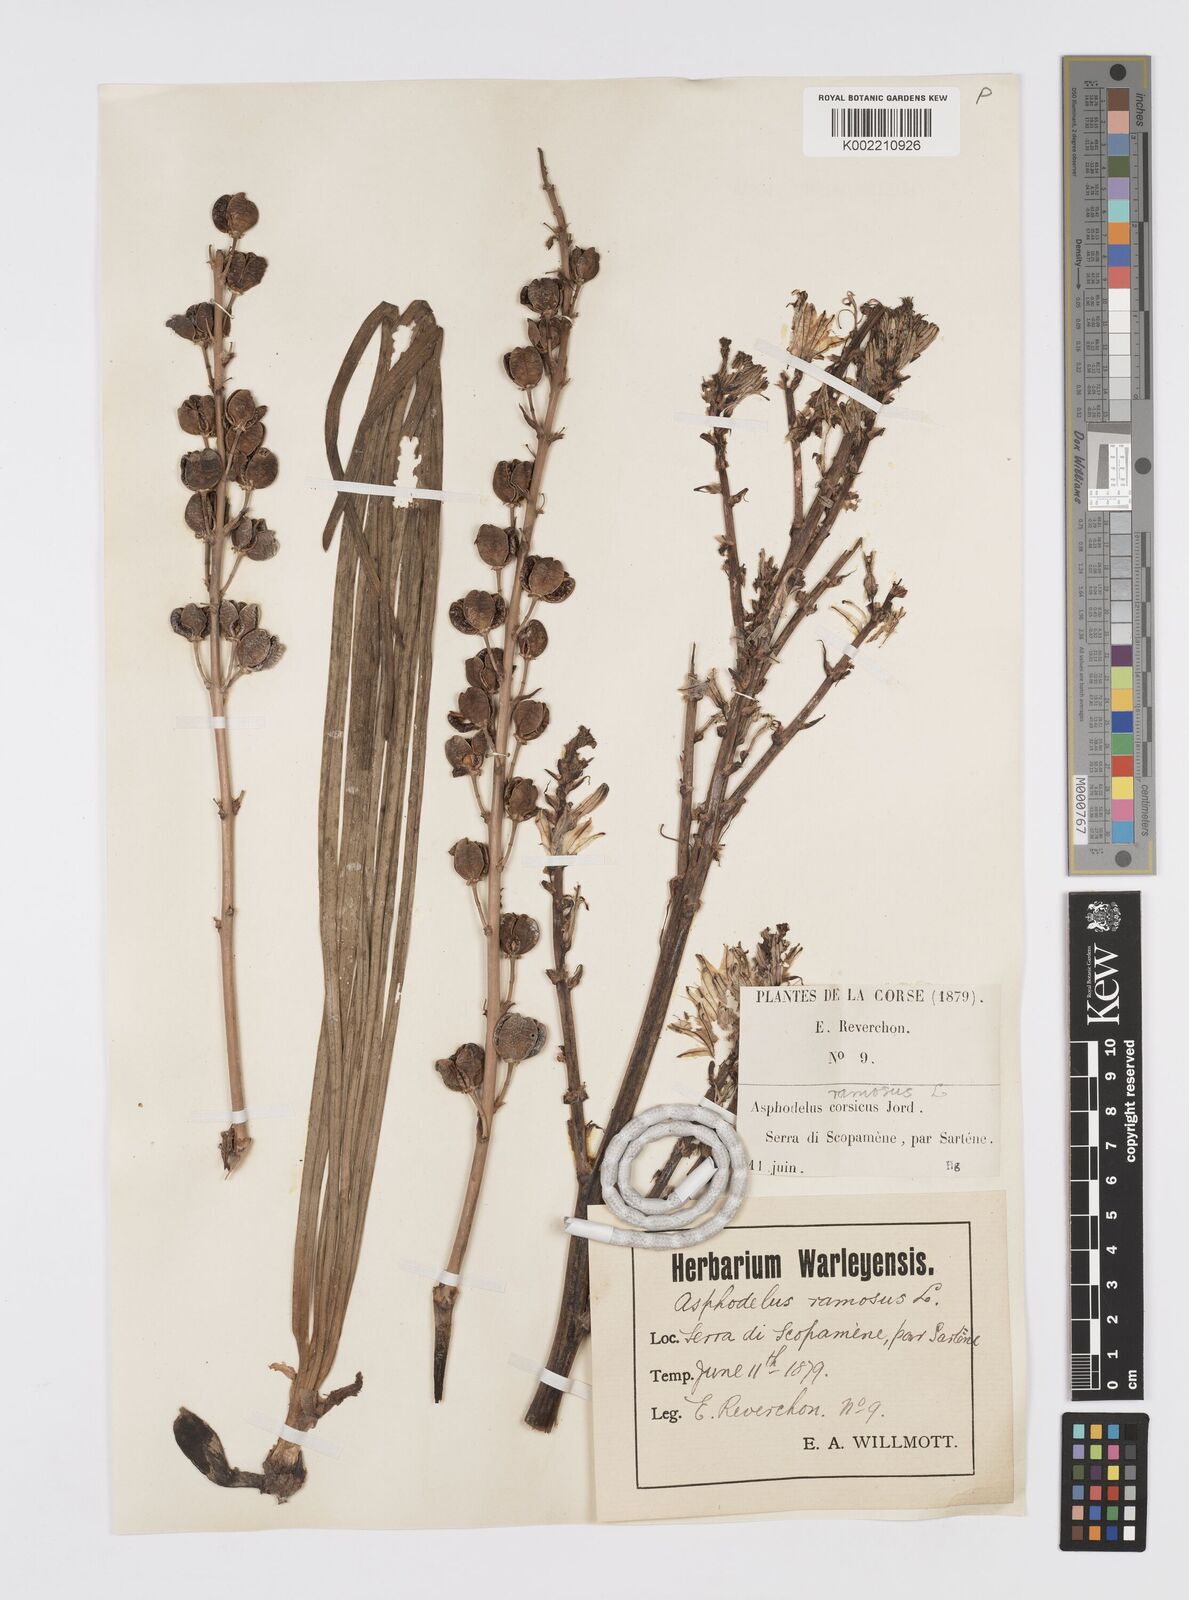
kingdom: Plantae
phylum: Tracheophyta
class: Liliopsida
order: Asparagales
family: Asphodelaceae
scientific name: Asphodelaceae
